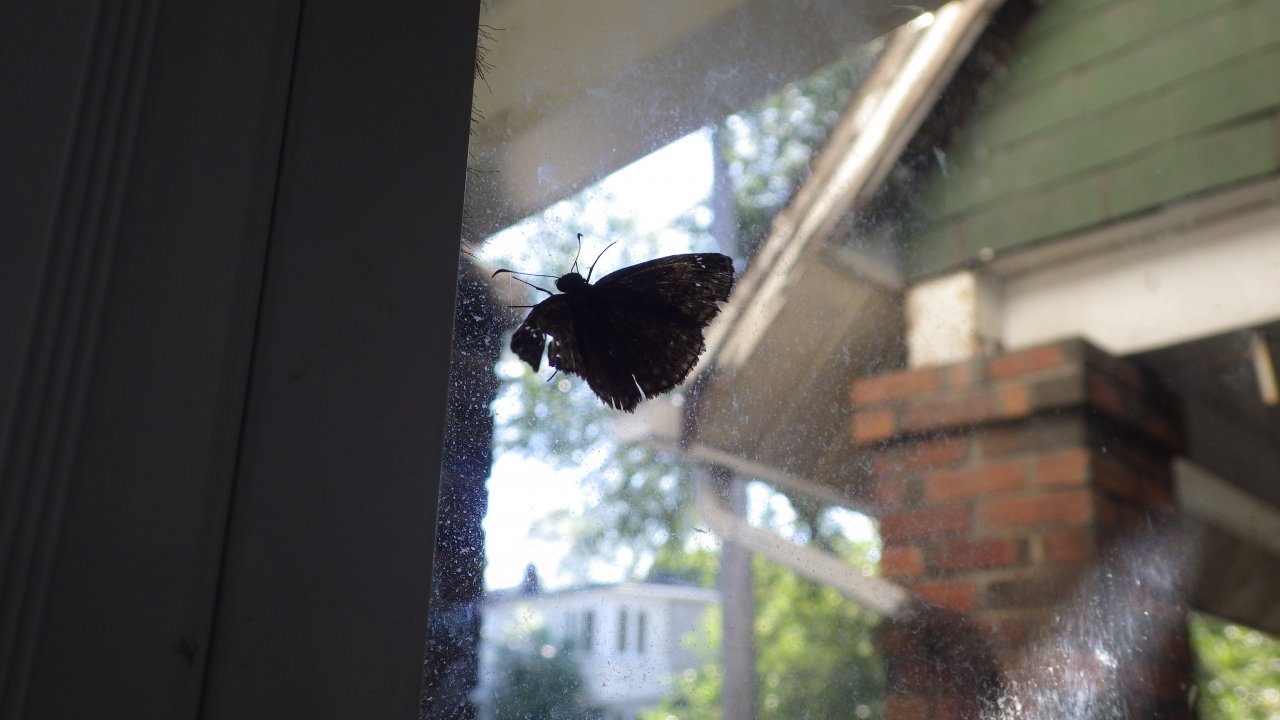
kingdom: Animalia
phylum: Arthropoda
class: Insecta
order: Lepidoptera
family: Hesperiidae
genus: Gesta
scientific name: Gesta
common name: Wild Indigo Duskywing
